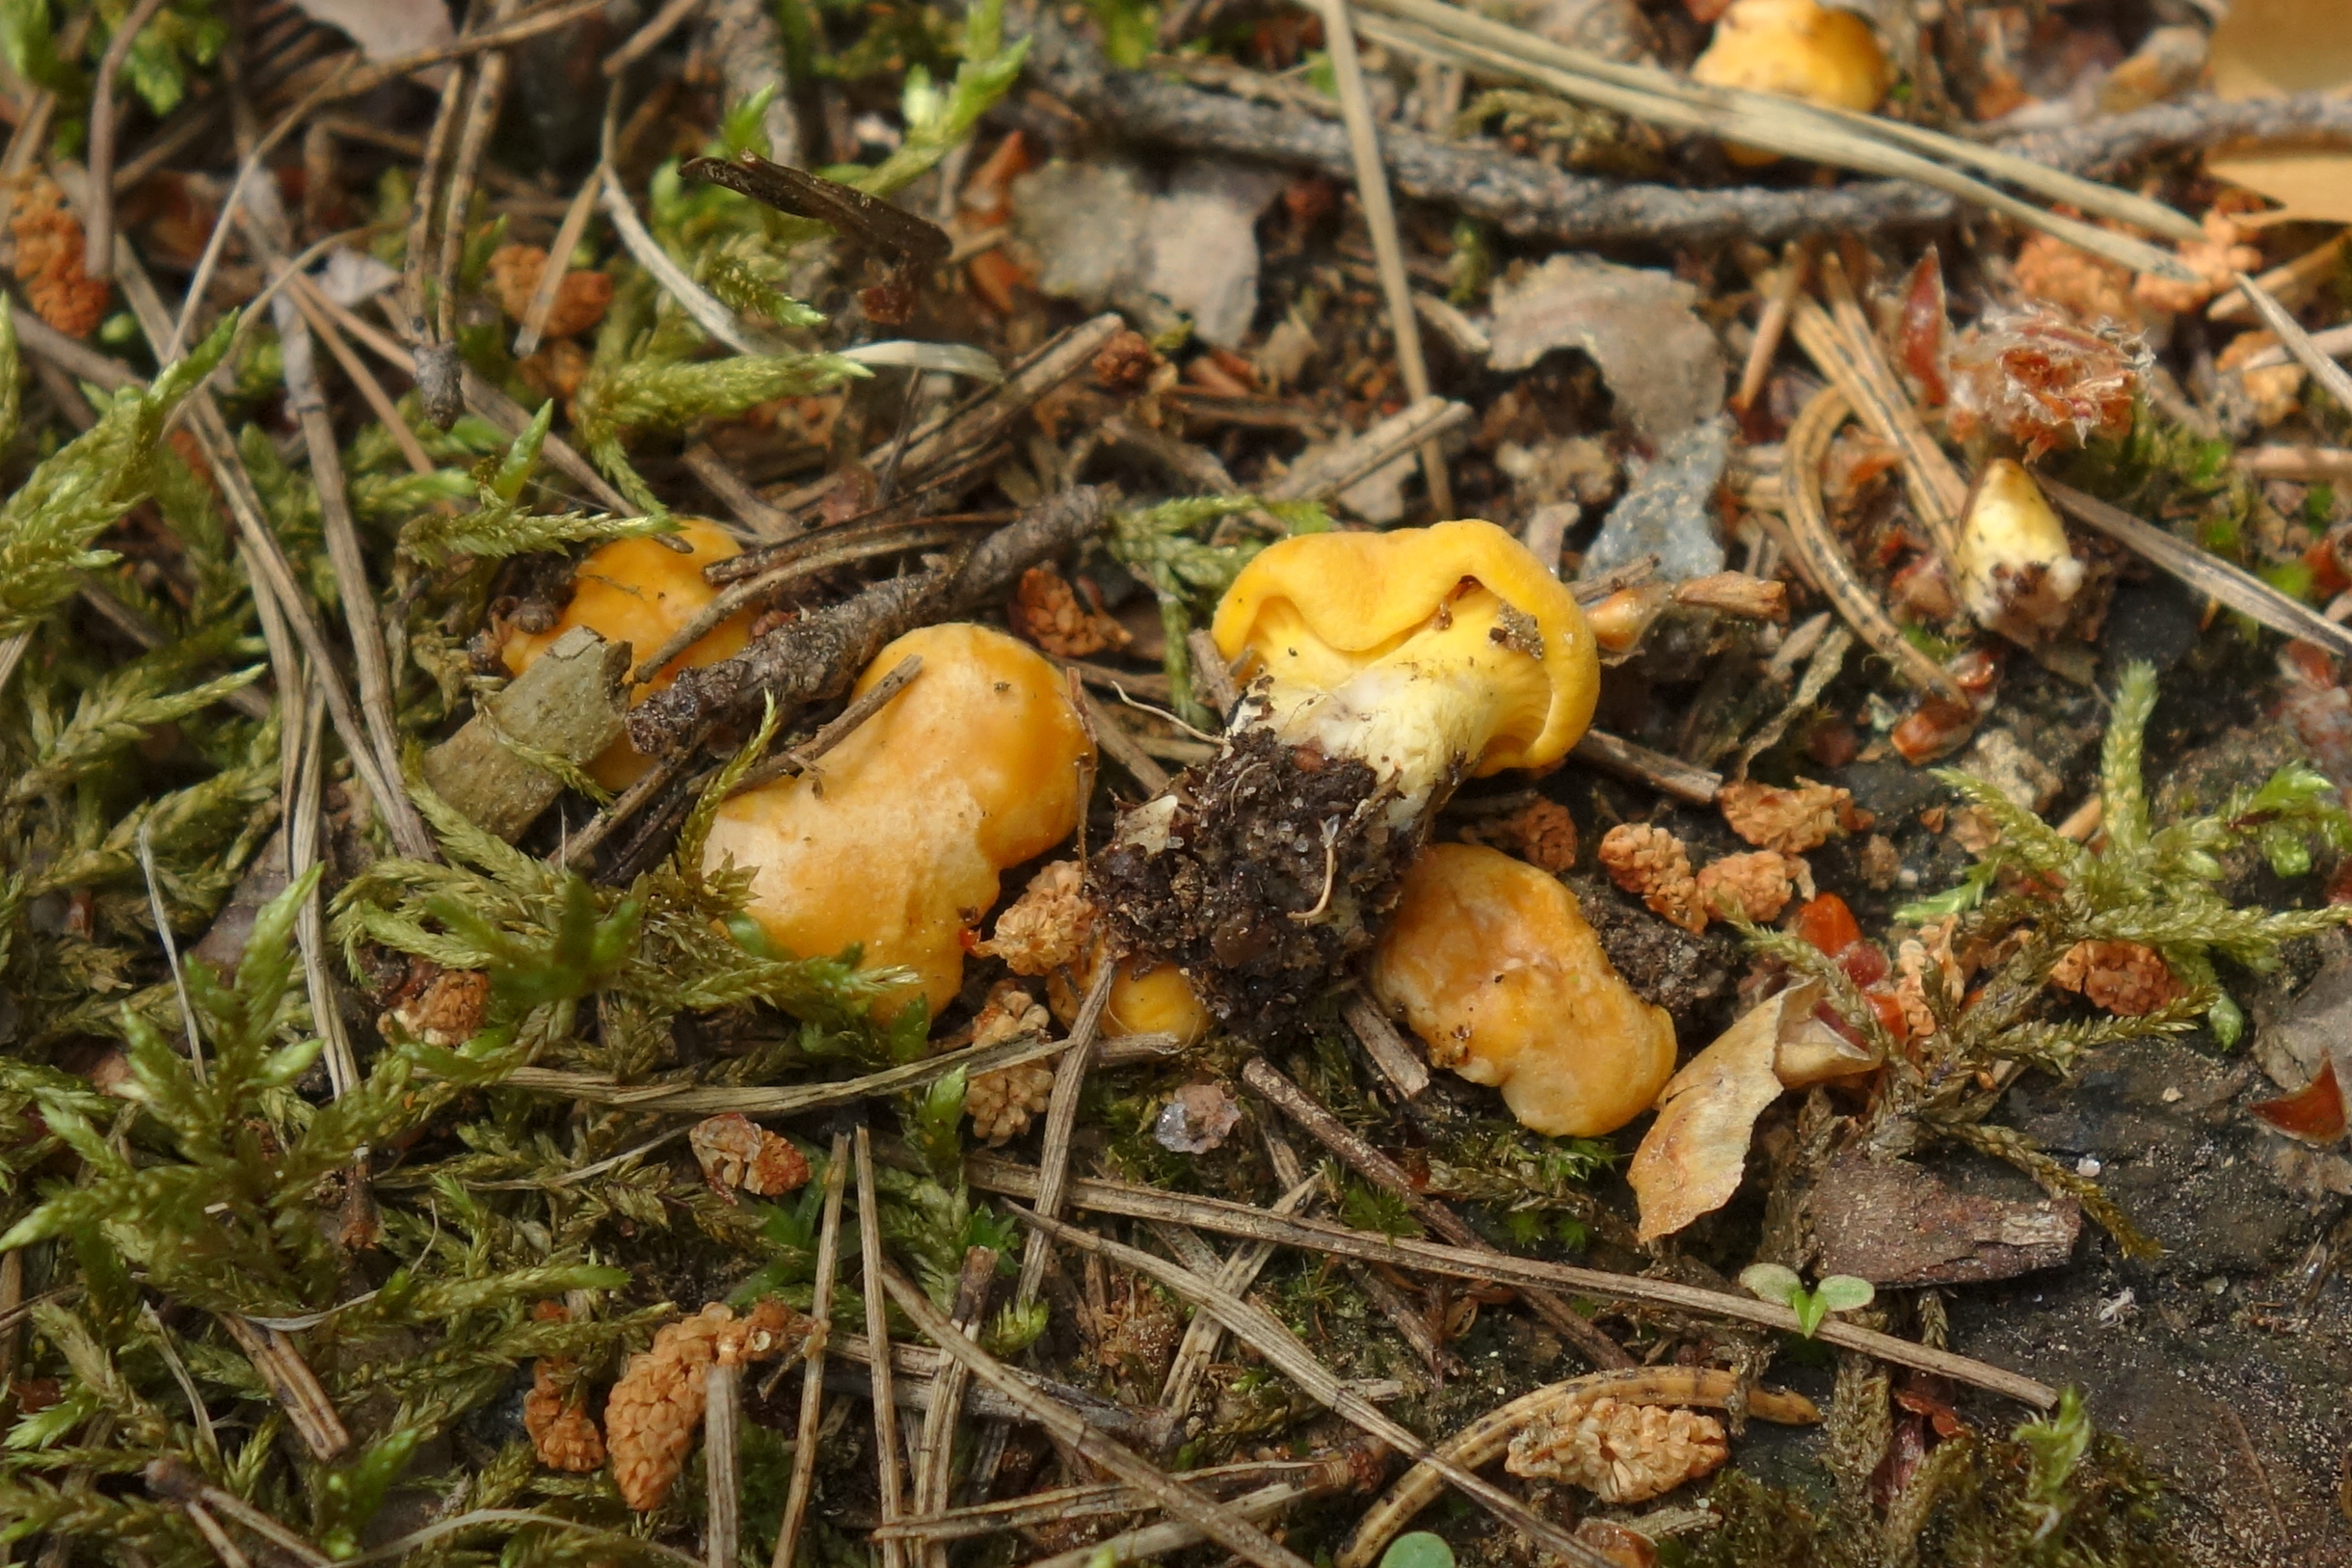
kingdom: Fungi
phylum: Basidiomycota
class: Agaricomycetes
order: Cantharellales
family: Hydnaceae
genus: Cantharellus
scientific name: Cantharellus cibarius
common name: Chanterelle
